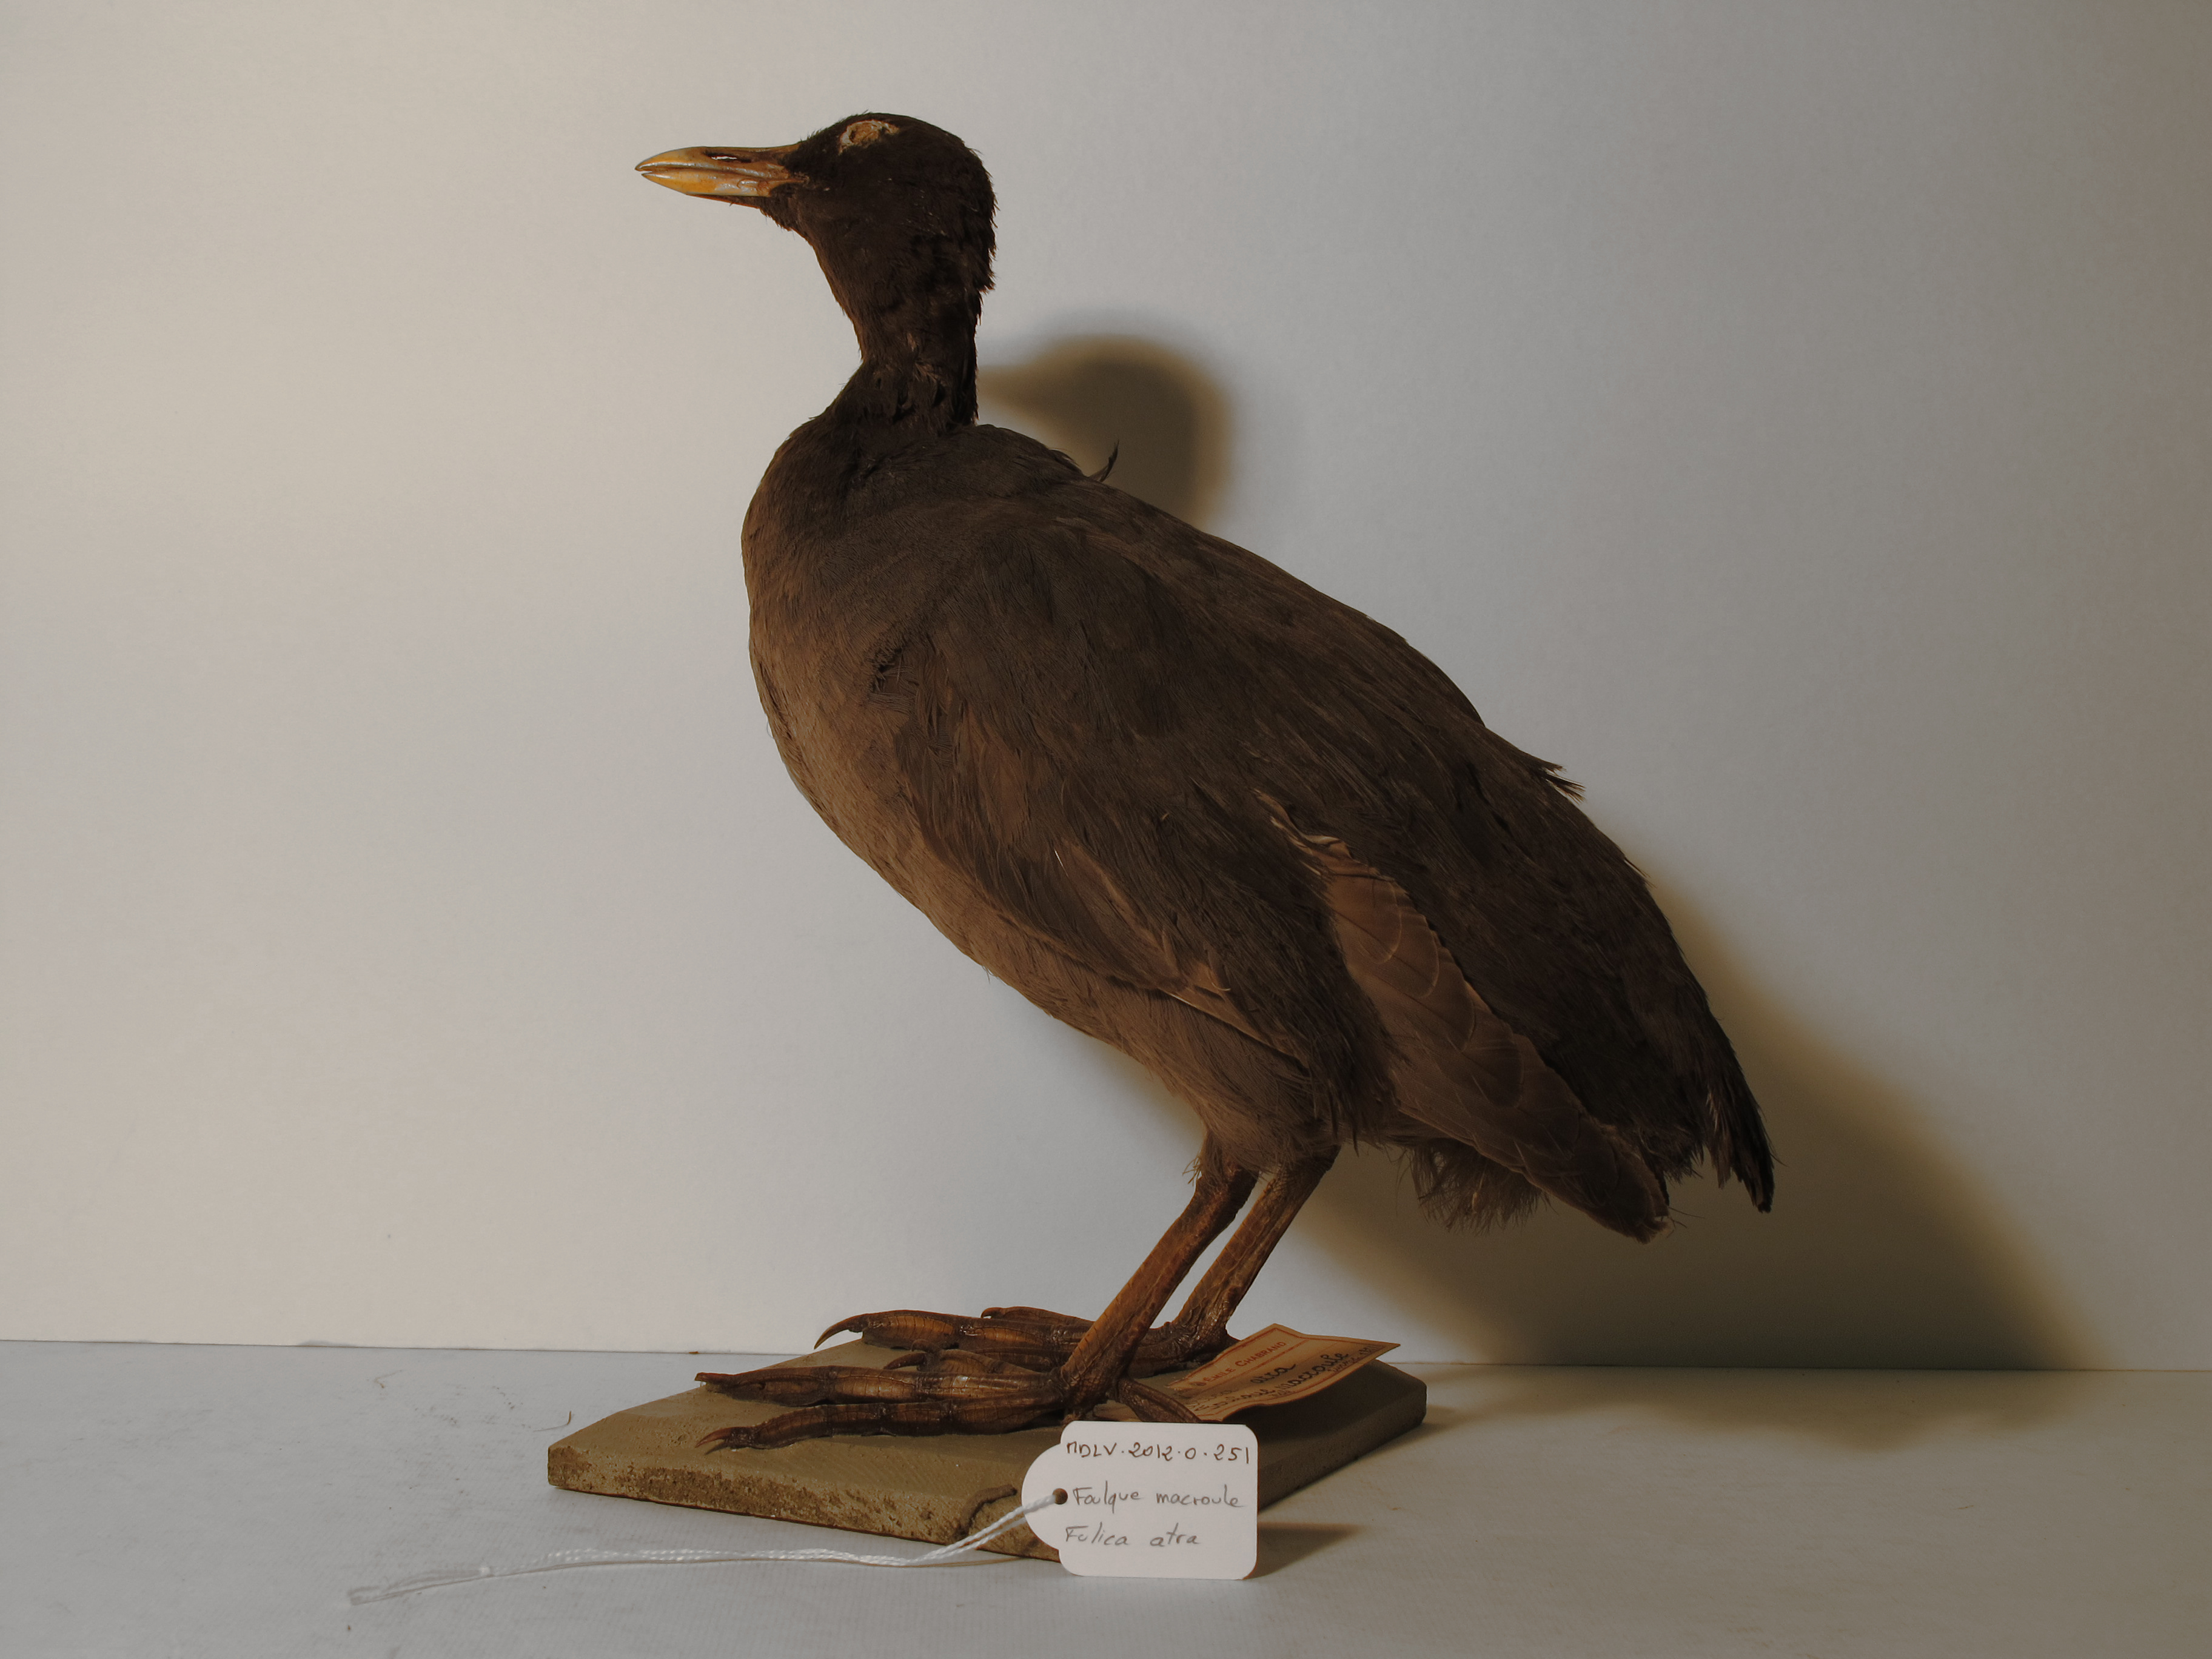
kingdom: Animalia
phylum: Chordata
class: Aves
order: Gruiformes
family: Rallidae
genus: Fulica
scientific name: Fulica atra
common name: Common Coot
